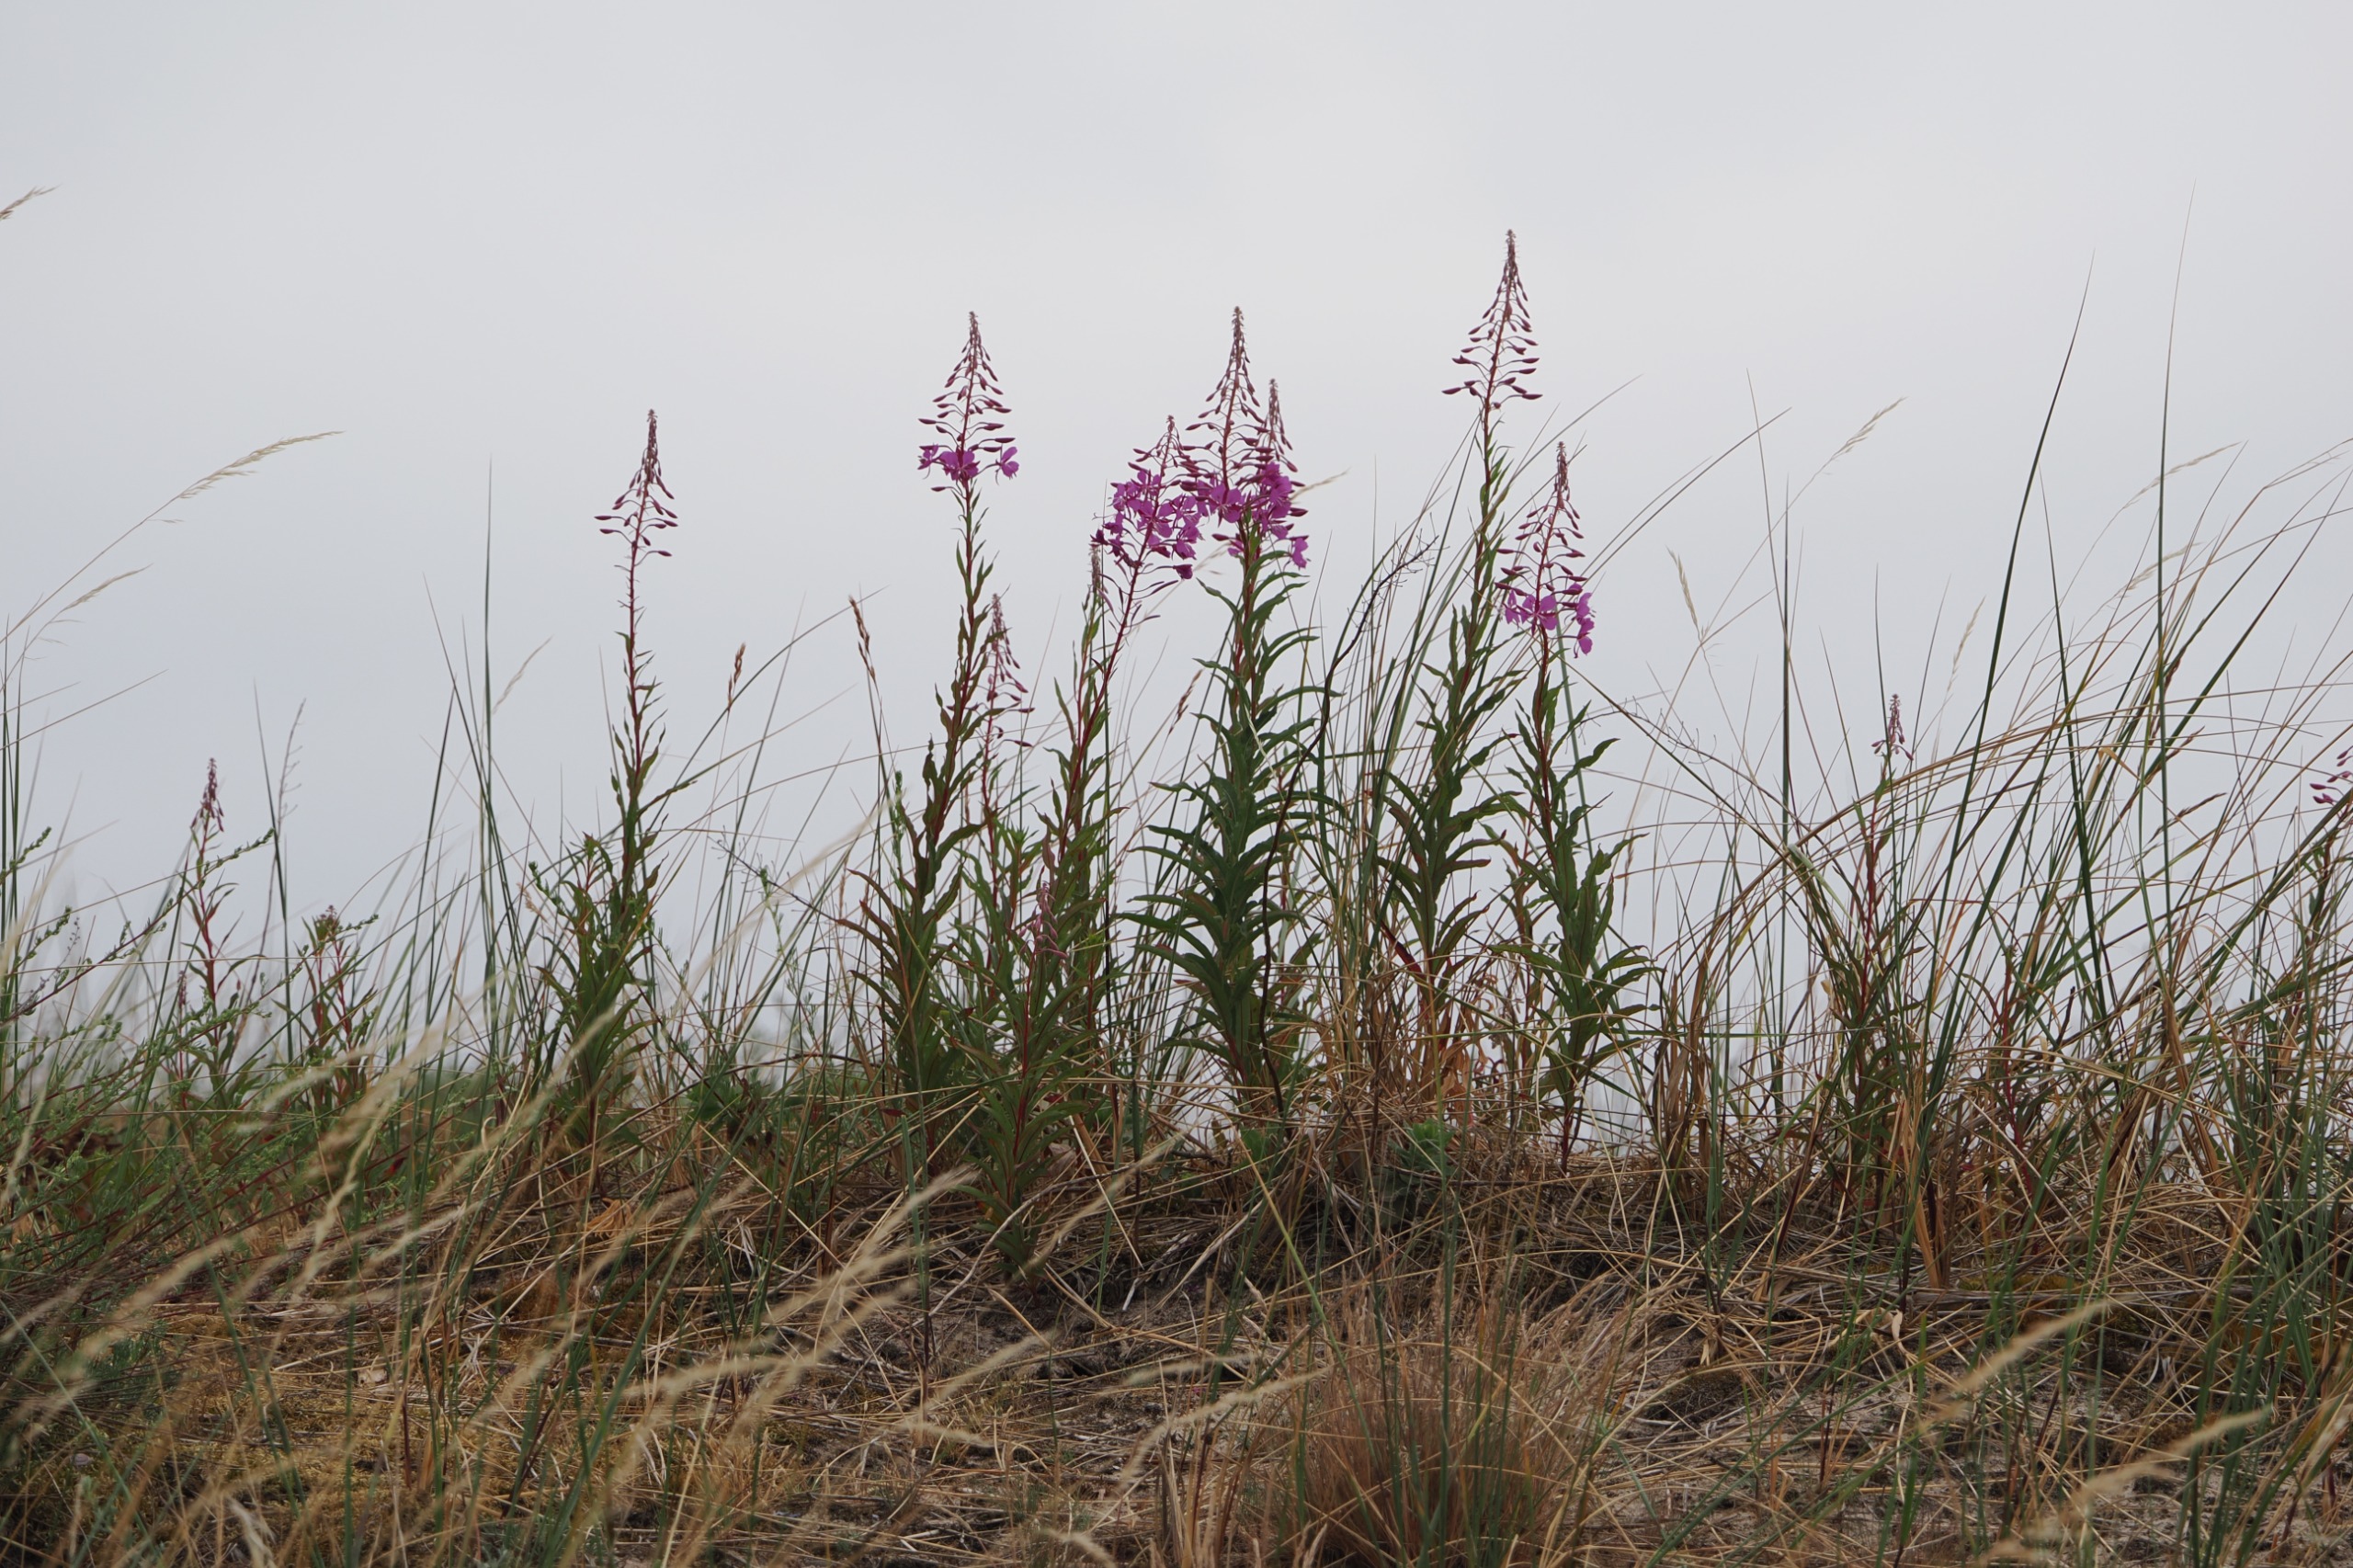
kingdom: Plantae
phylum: Tracheophyta
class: Magnoliopsida
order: Myrtales
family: Onagraceae
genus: Chamaenerion
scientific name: Chamaenerion angustifolium
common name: Gederams
